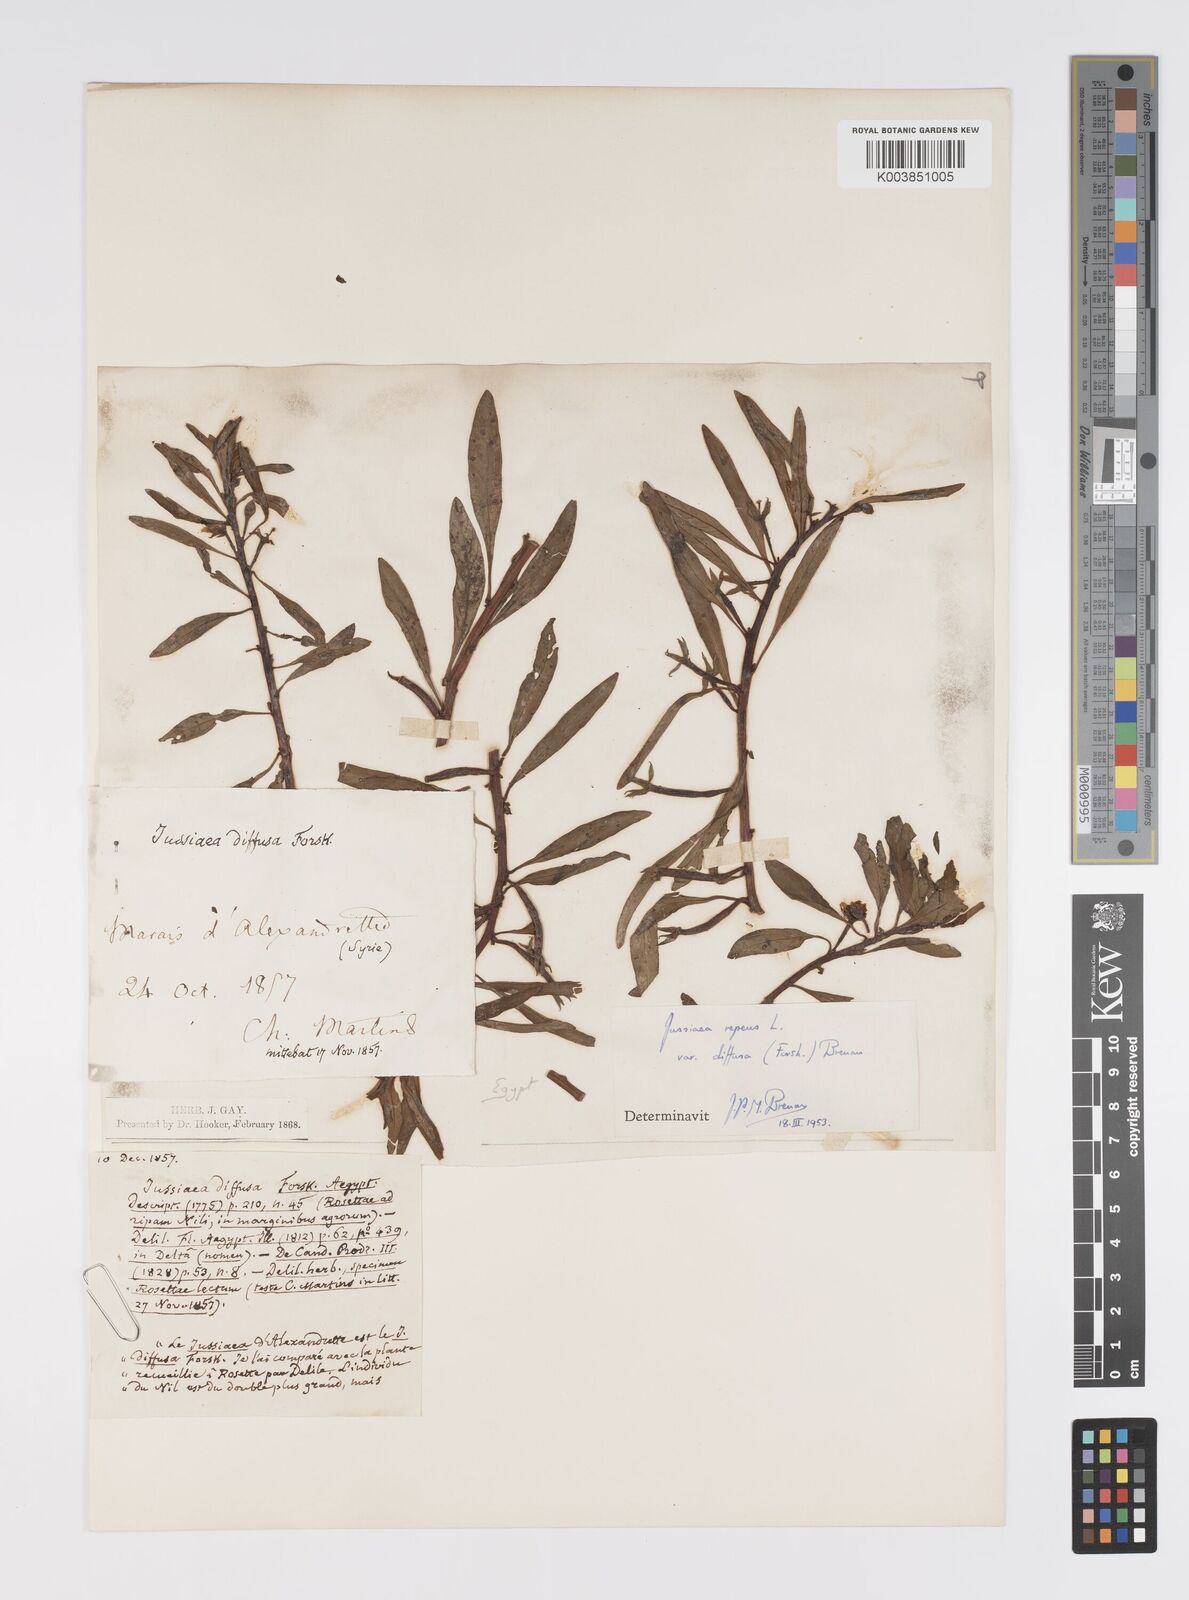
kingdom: Plantae
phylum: Tracheophyta
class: Magnoliopsida
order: Myrtales
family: Onagraceae
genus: Ludwigia
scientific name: Ludwigia adscendens
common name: Creeping water primrose
